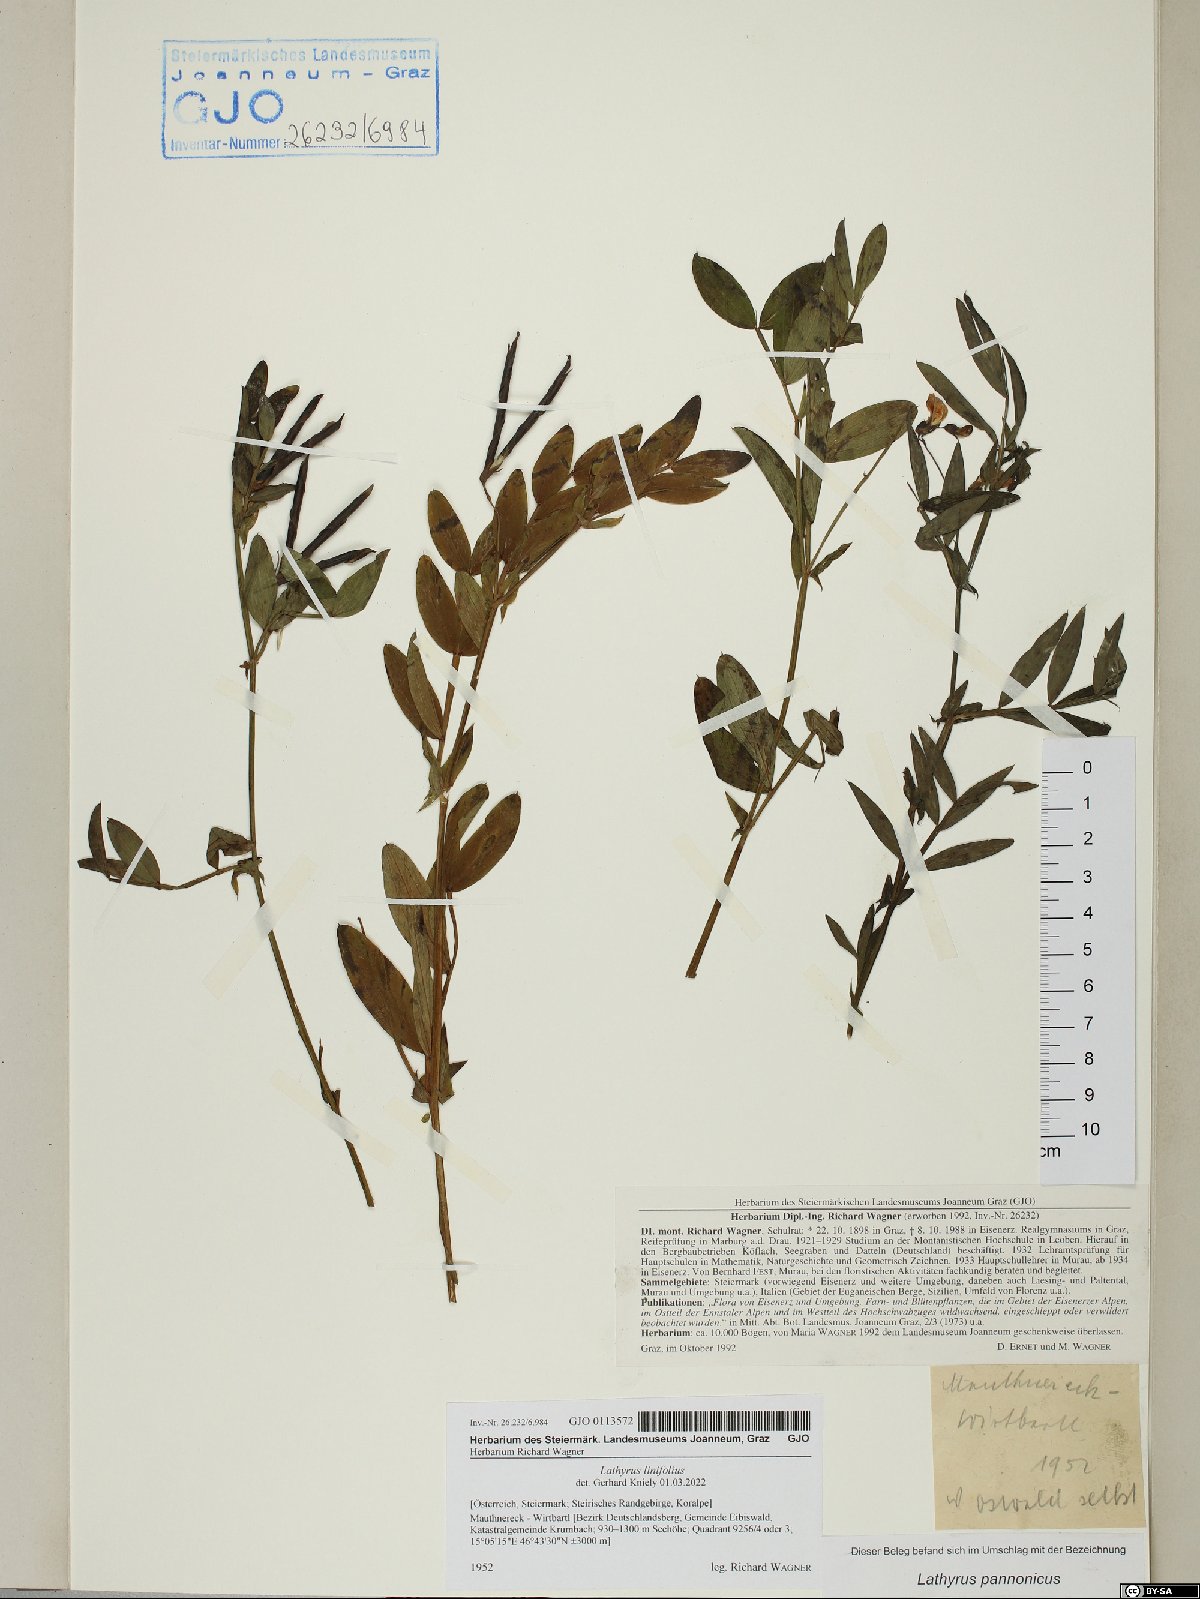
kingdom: Plantae
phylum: Tracheophyta
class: Magnoliopsida
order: Fabales
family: Fabaceae
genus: Lathyrus
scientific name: Lathyrus linifolius
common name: Bitter-vetch
